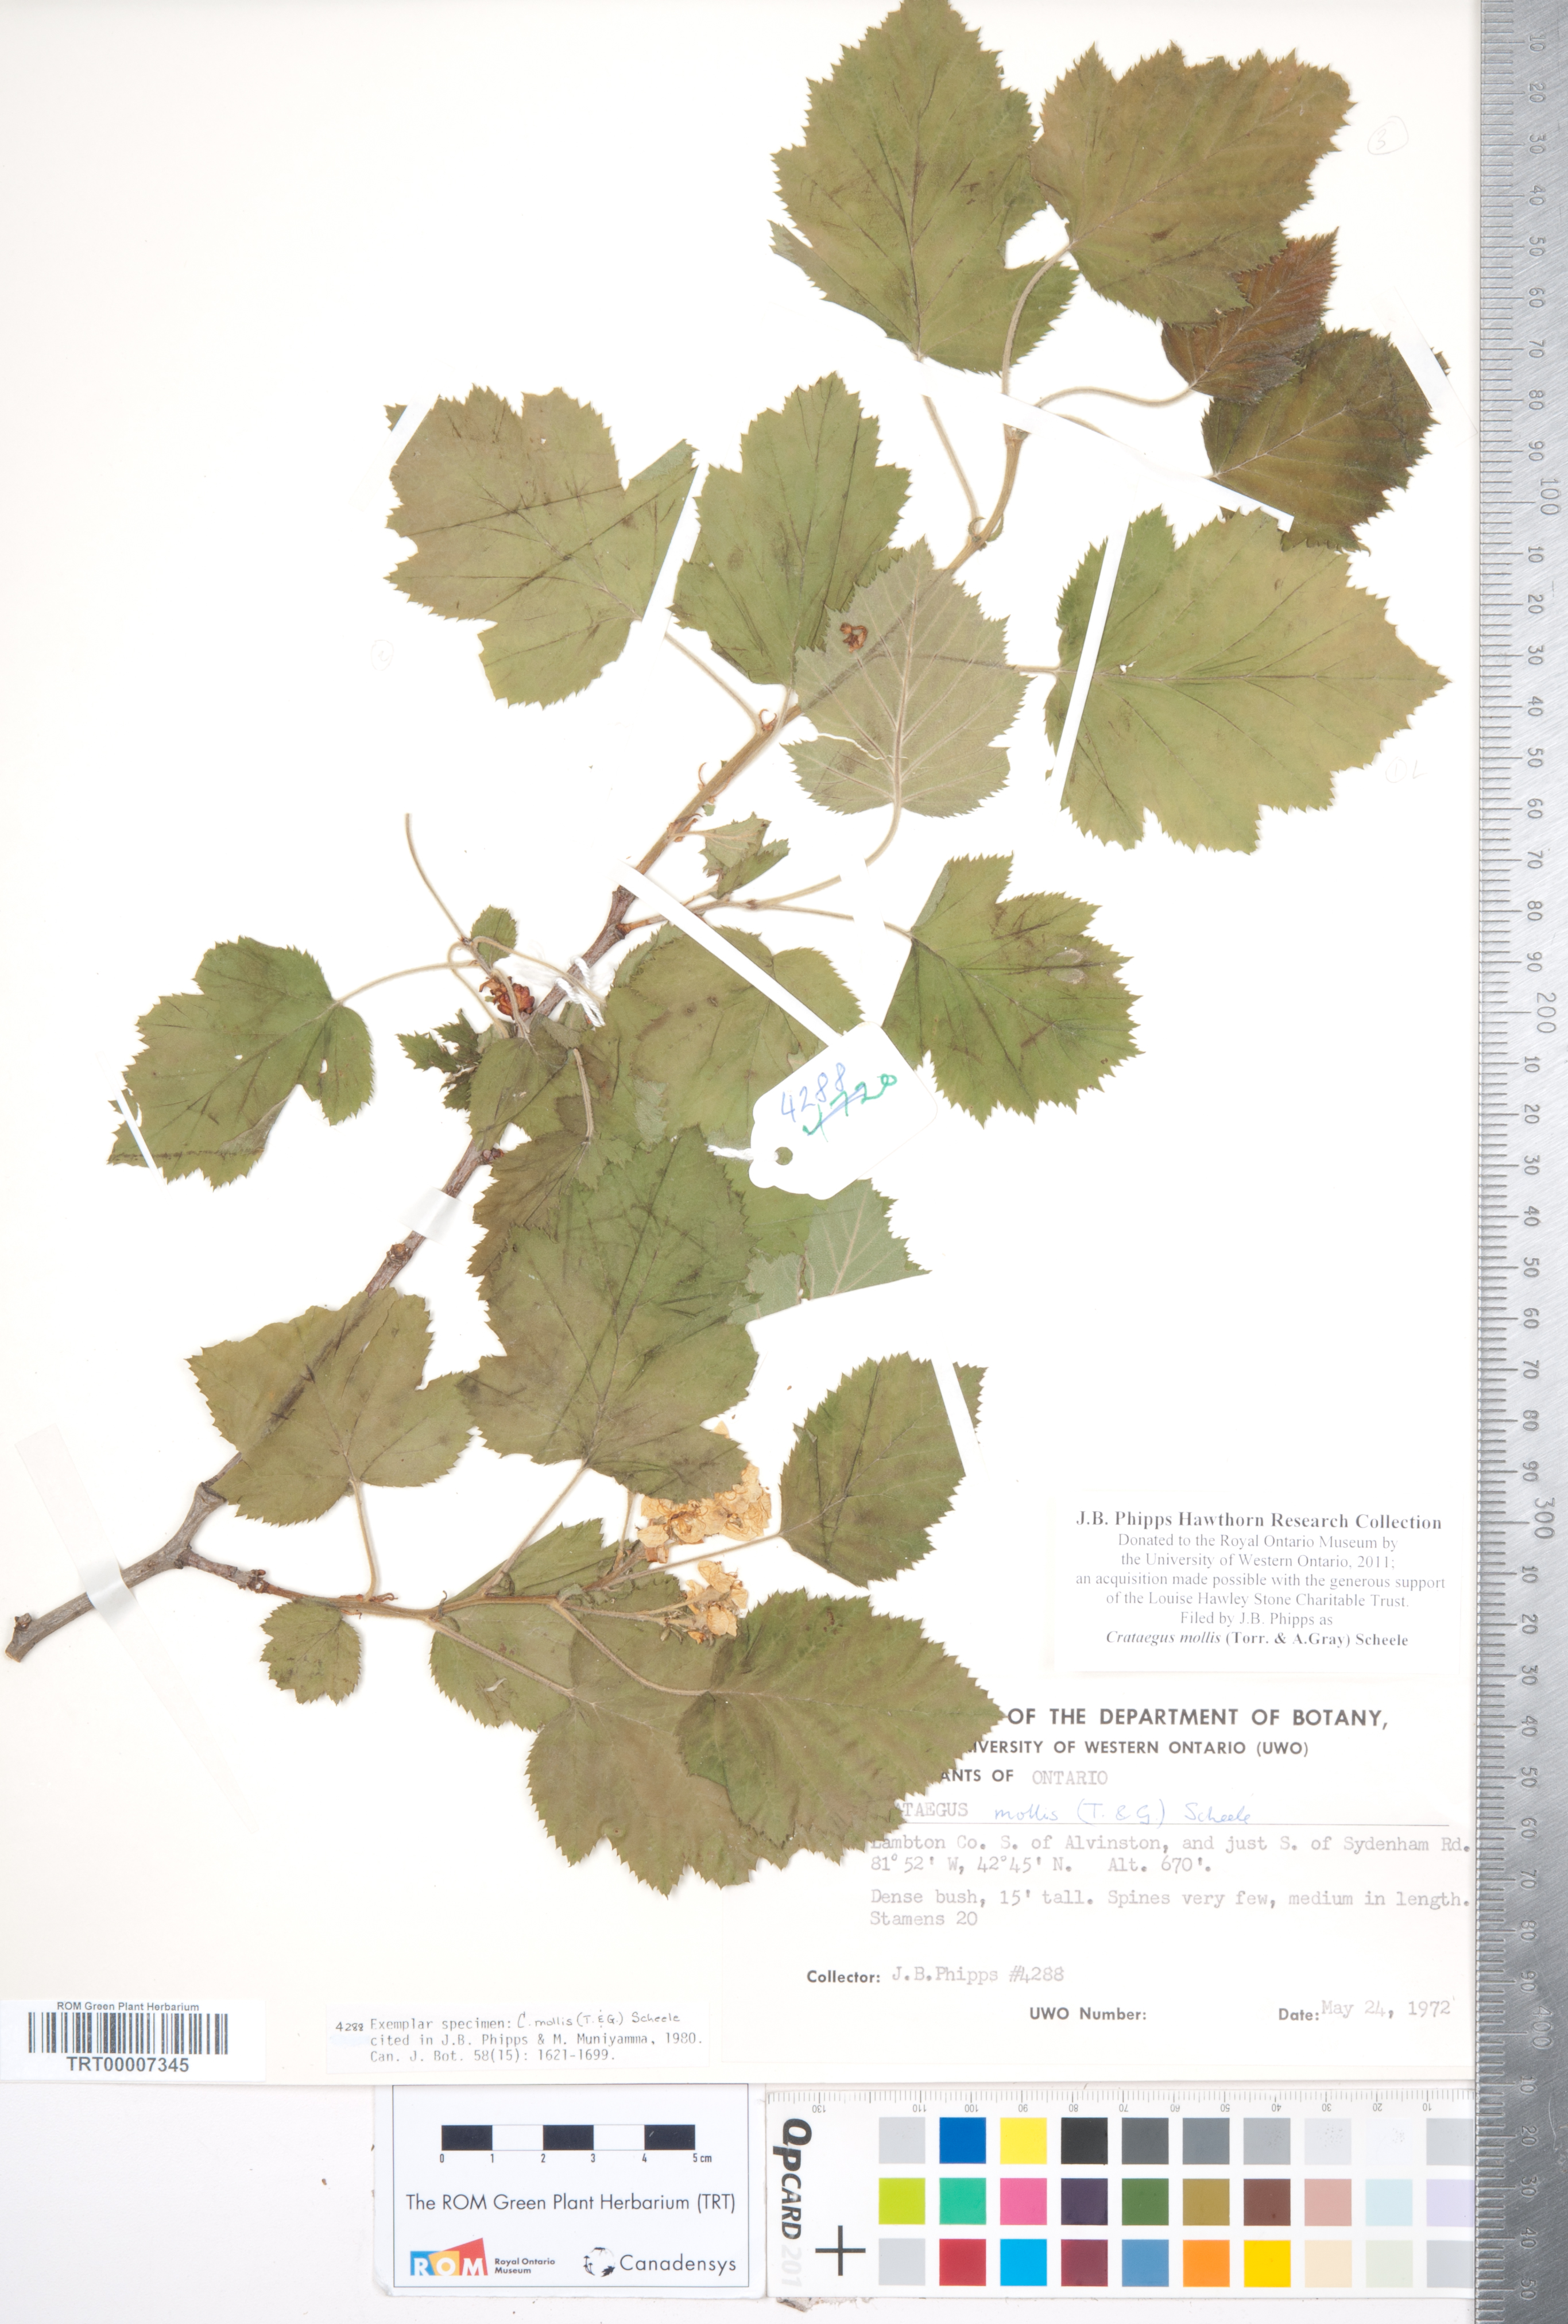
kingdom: Plantae
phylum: Tracheophyta
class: Magnoliopsida
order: Rosales
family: Rosaceae
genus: Crataegus
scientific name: Crataegus mollis
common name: Downy hawthorn
